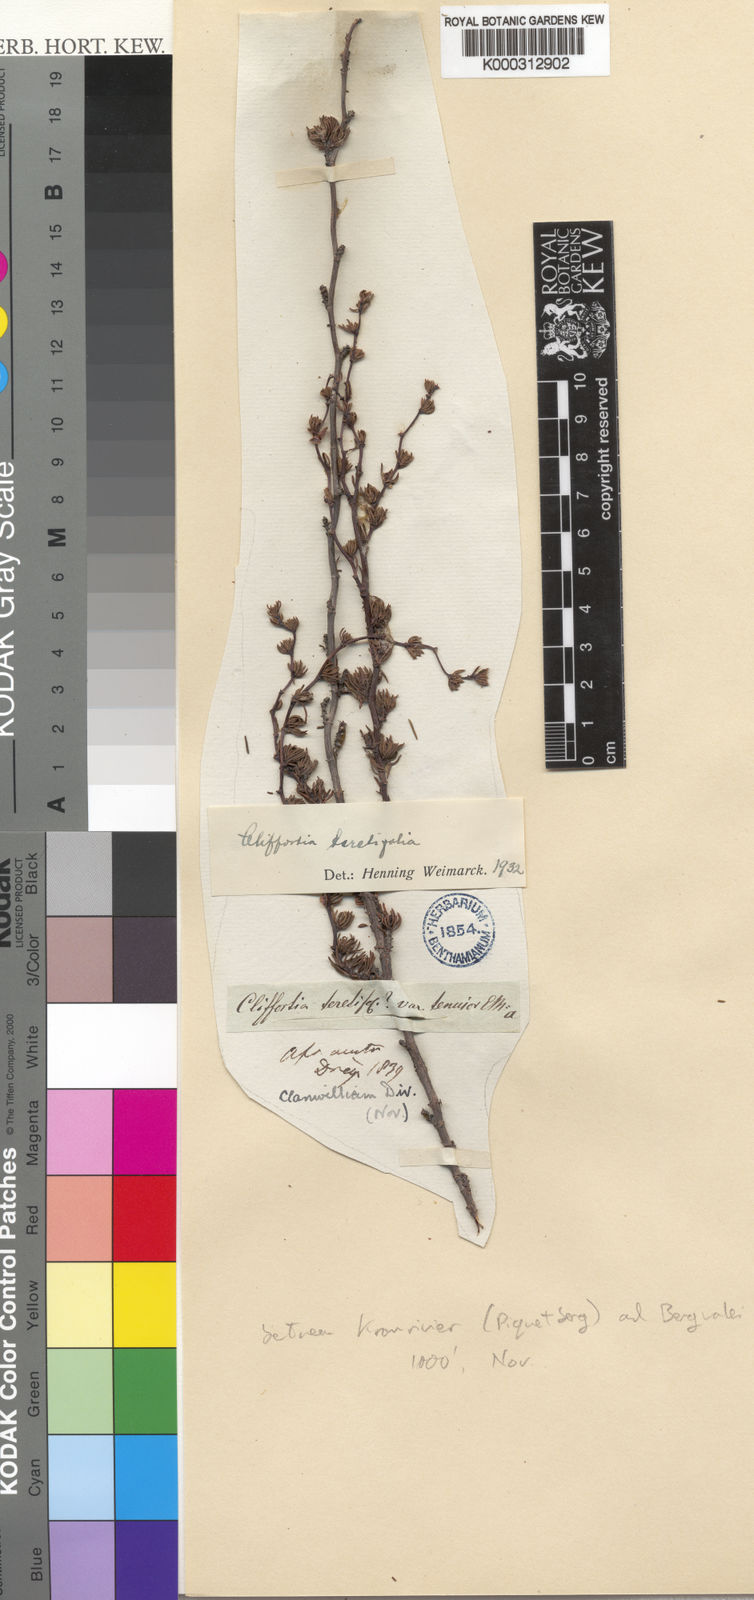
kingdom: Plantae
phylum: Tracheophyta
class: Magnoliopsida
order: Rosales
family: Rosaceae
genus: Cliffortia
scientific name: Cliffortia
